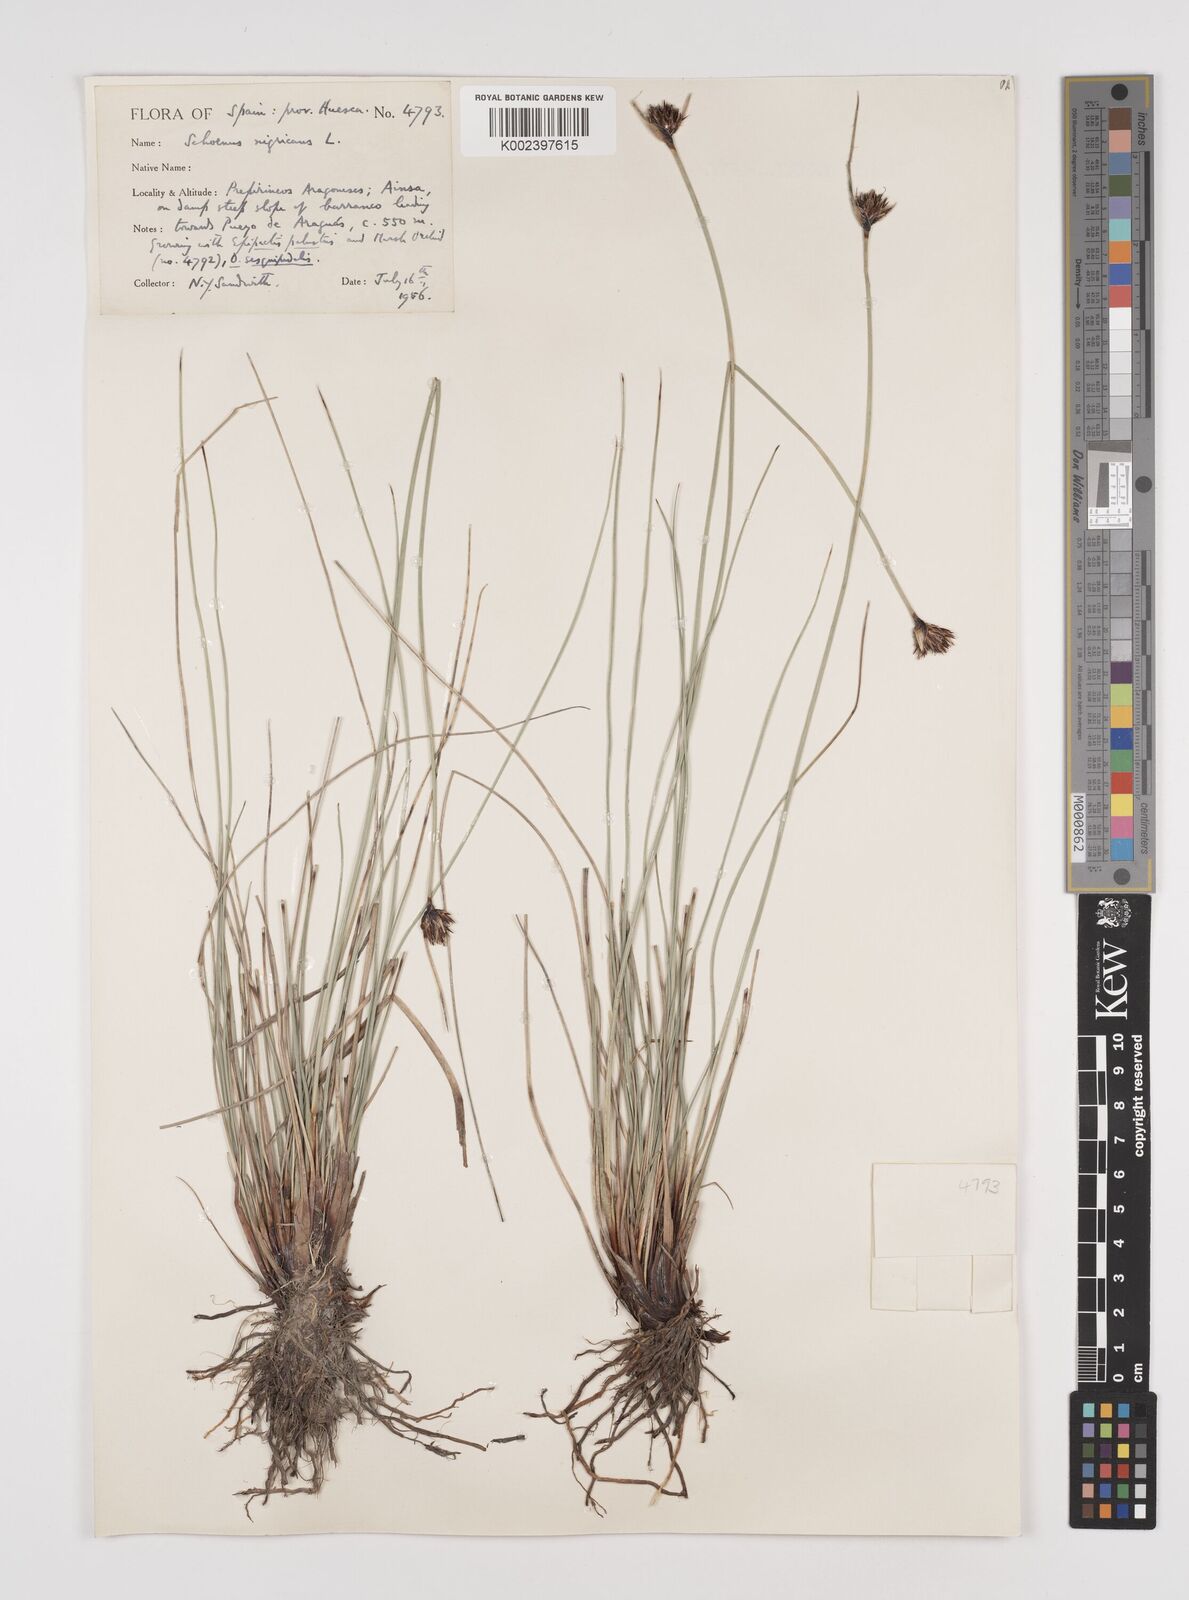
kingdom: Plantae
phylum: Tracheophyta
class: Liliopsida
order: Poales
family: Cyperaceae
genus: Schoenus
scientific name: Schoenus nigricans
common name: Black bog-rush
